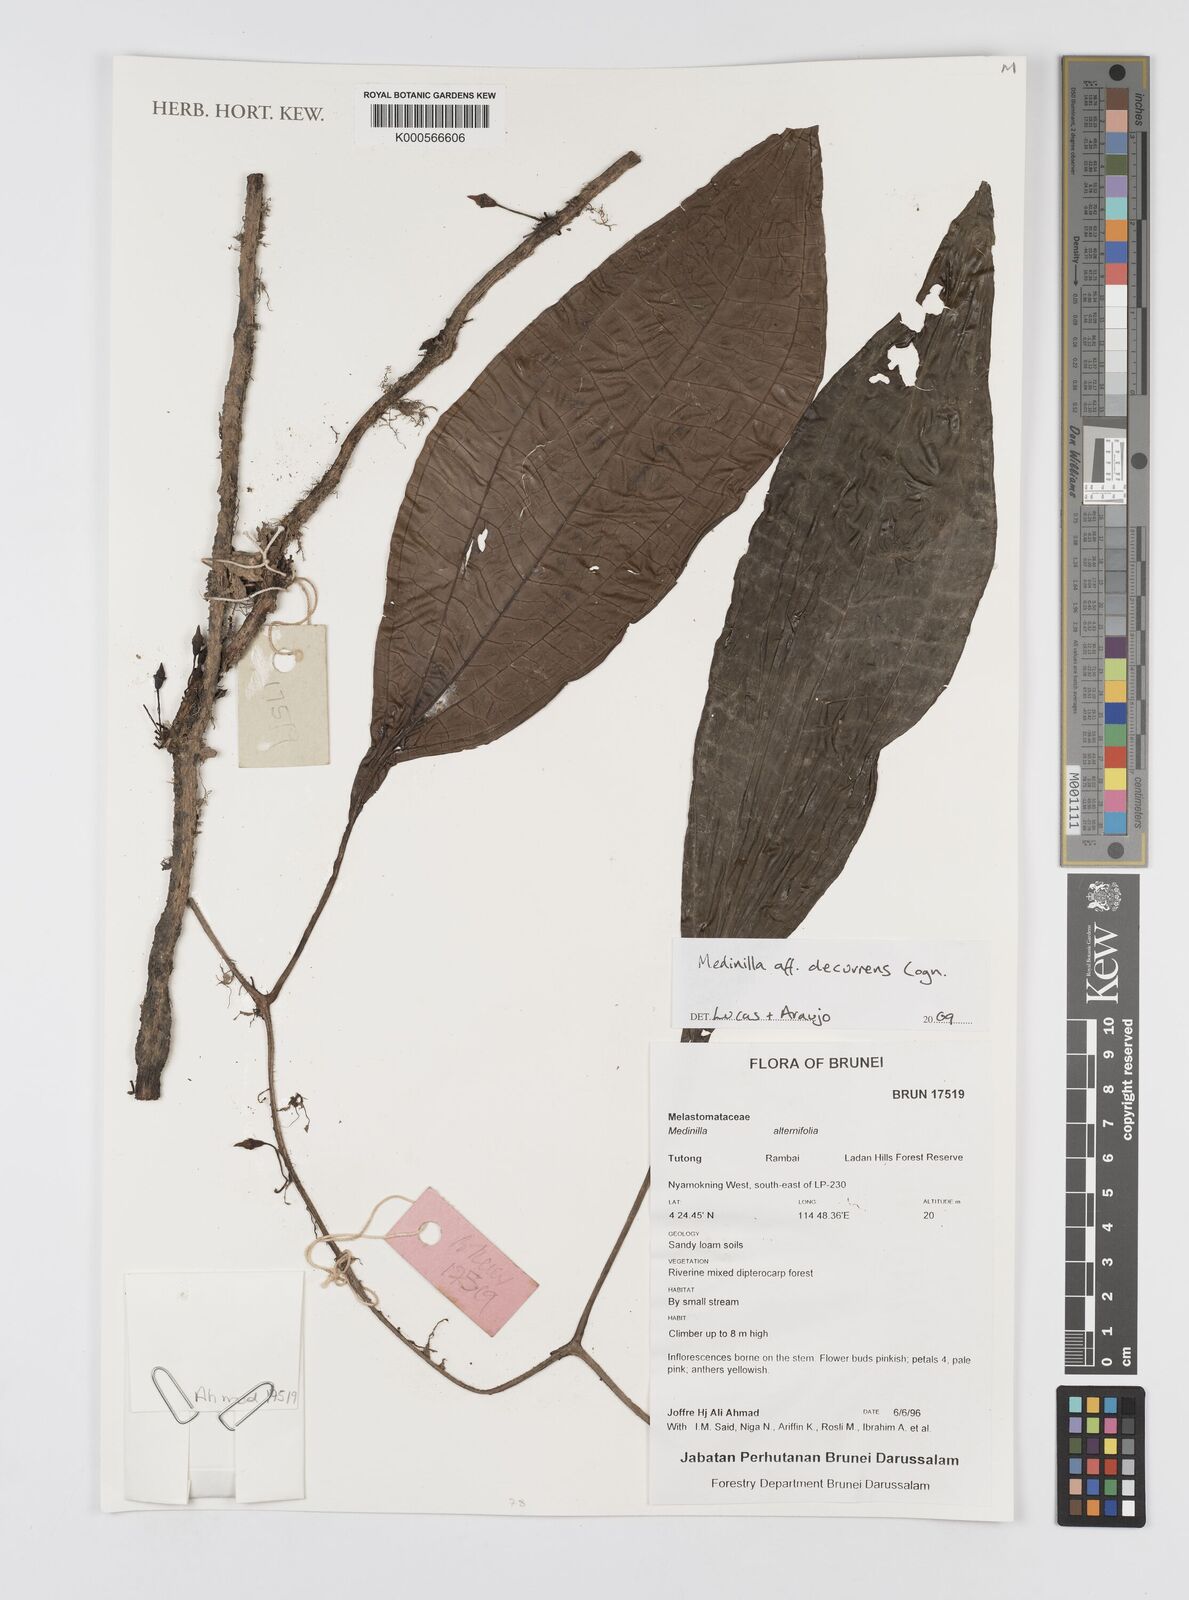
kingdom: Plantae
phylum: Tracheophyta
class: Magnoliopsida
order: Myrtales
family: Melastomataceae
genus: Heteroblemma
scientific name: Heteroblemma decurrens
